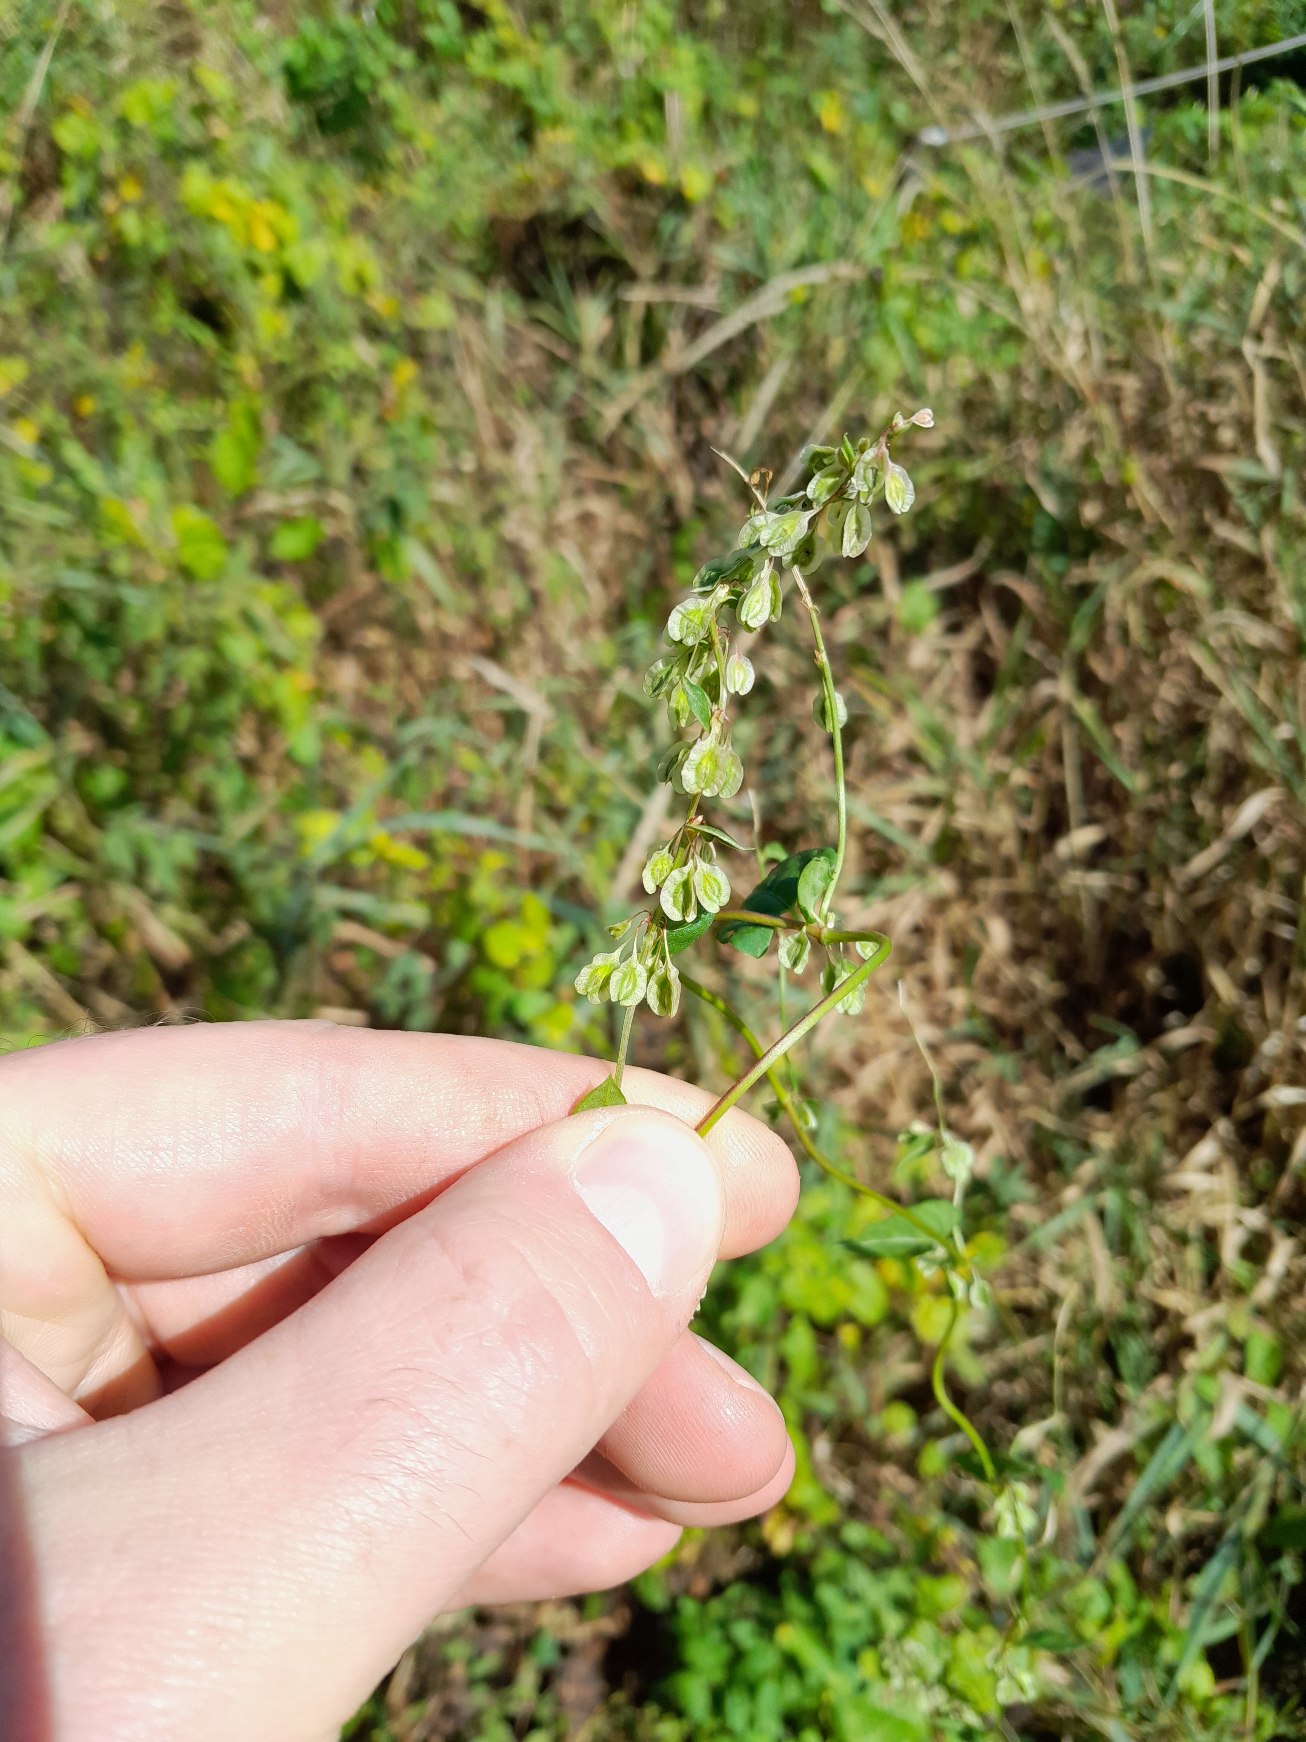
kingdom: Plantae
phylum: Tracheophyta
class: Magnoliopsida
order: Caryophyllales
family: Polygonaceae
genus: Fallopia
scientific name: Fallopia dumetorum
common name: Vinge-pileurt
